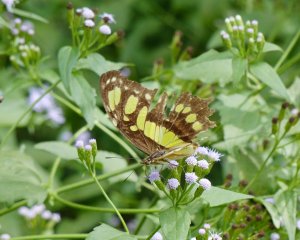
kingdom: Animalia
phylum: Arthropoda
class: Insecta
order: Lepidoptera
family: Nymphalidae
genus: Siproeta
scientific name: Siproeta stelenes
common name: Malachite
